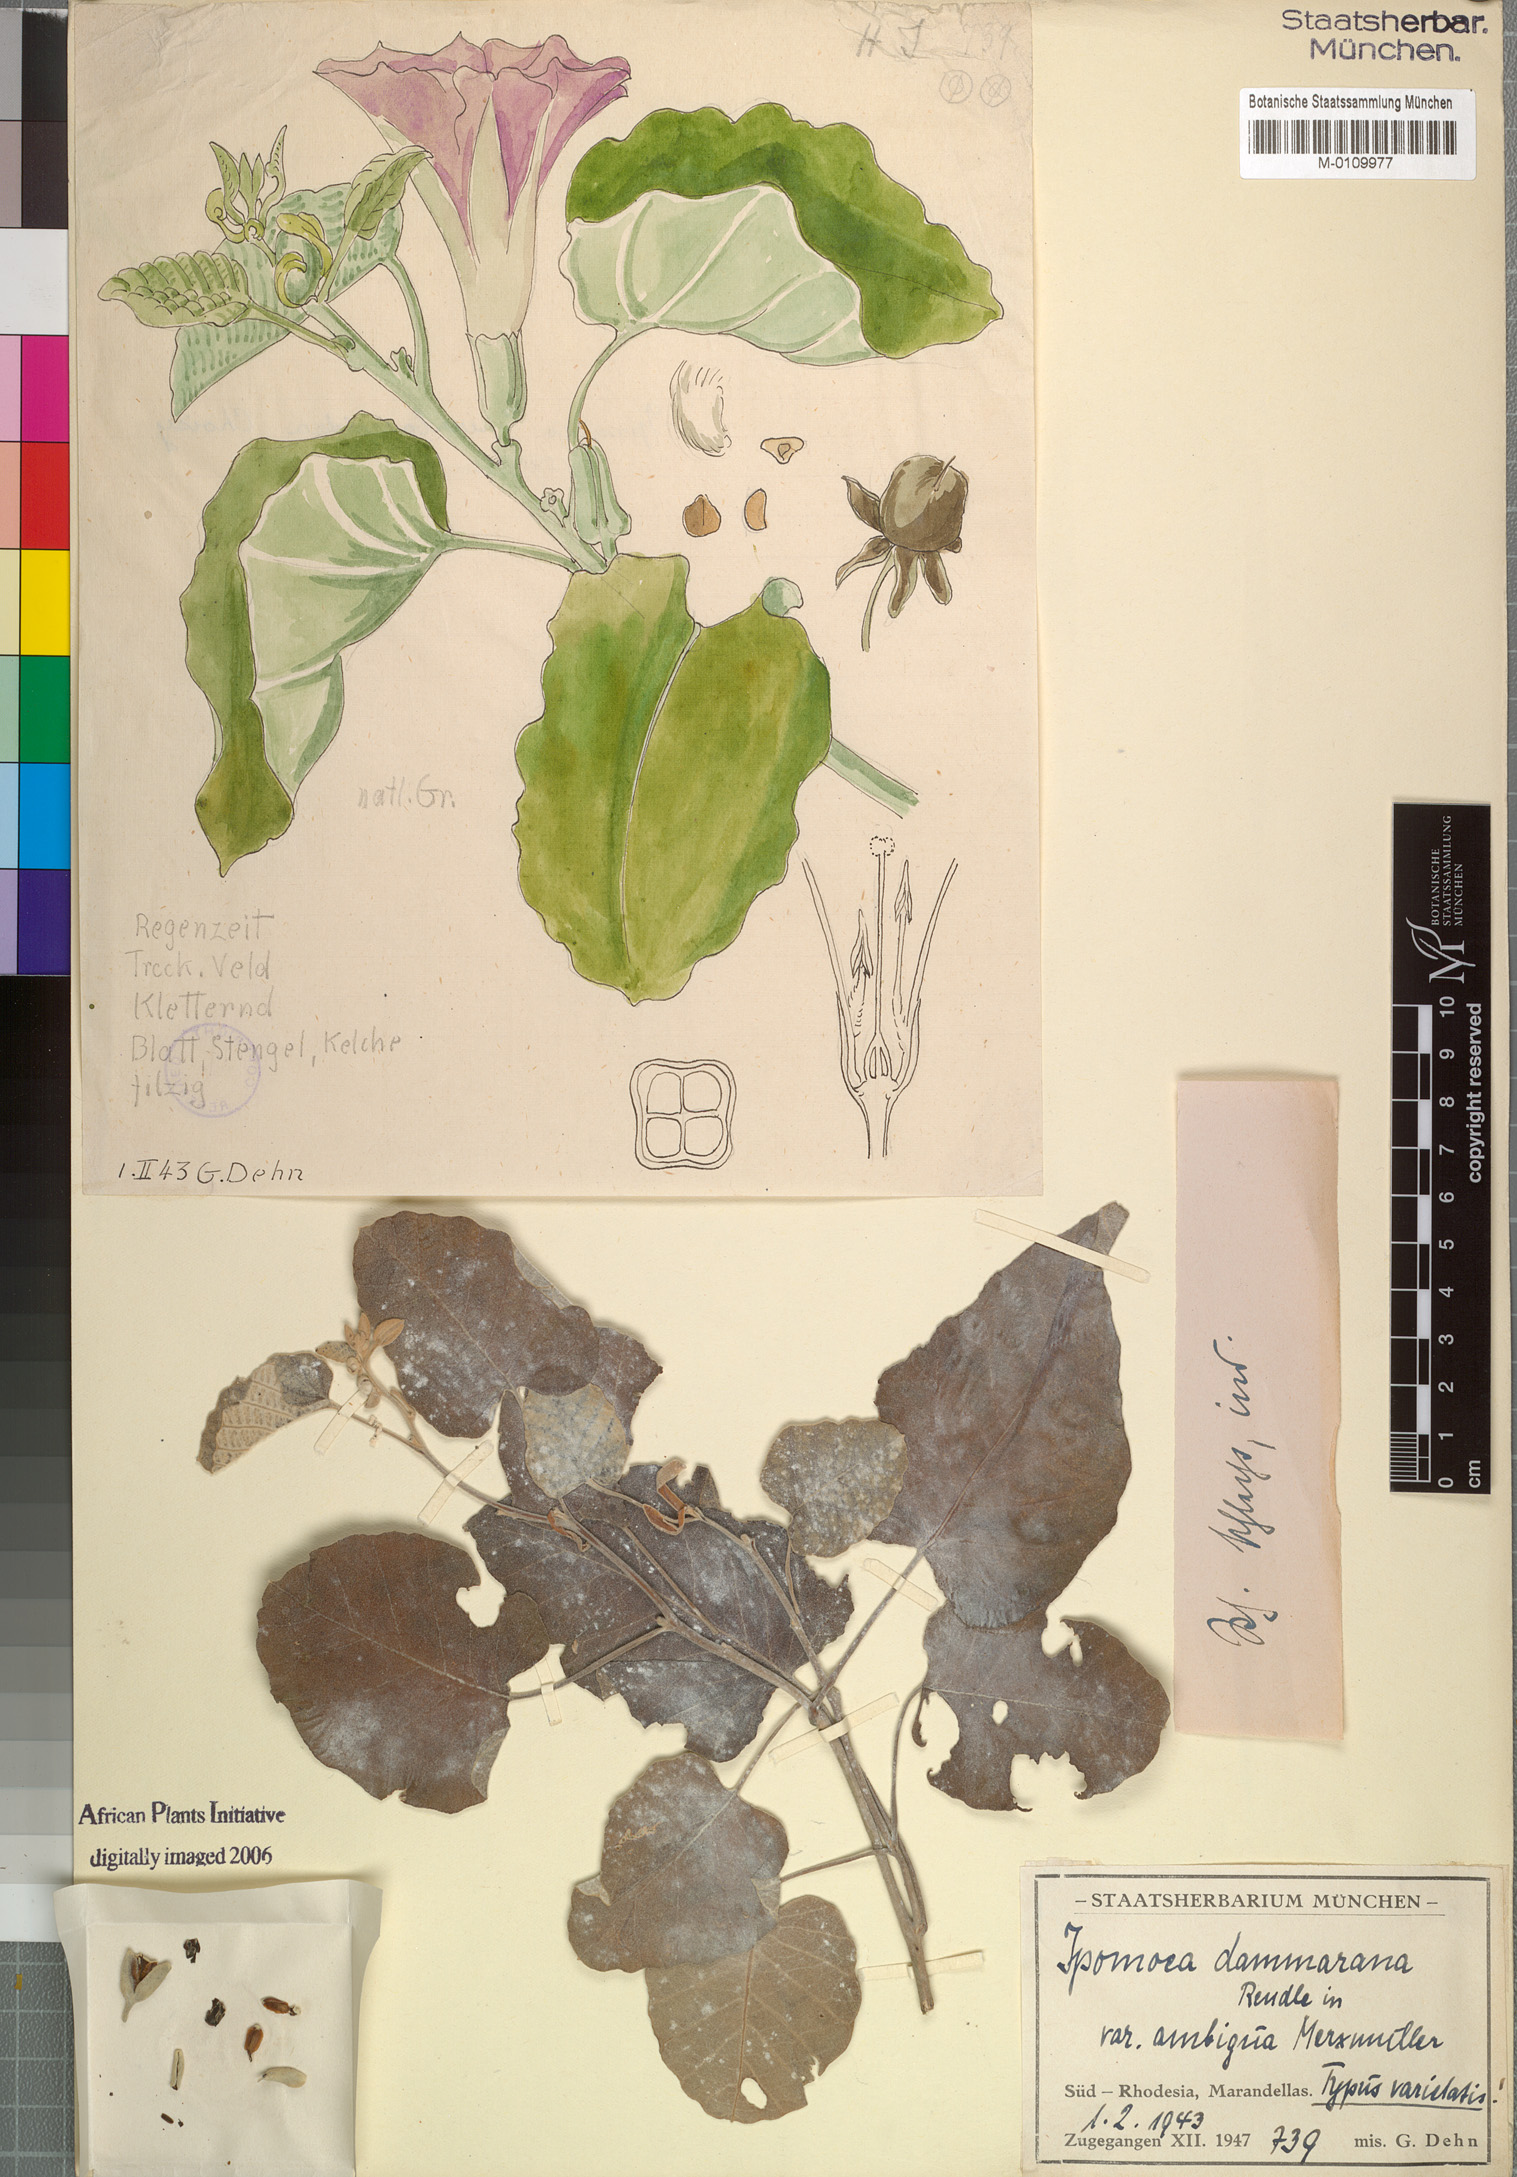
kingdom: Plantae
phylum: Tracheophyta
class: Magnoliopsida
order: Solanales
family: Convolvulaceae
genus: Ipomoea
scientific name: Ipomoea verbascoidea
